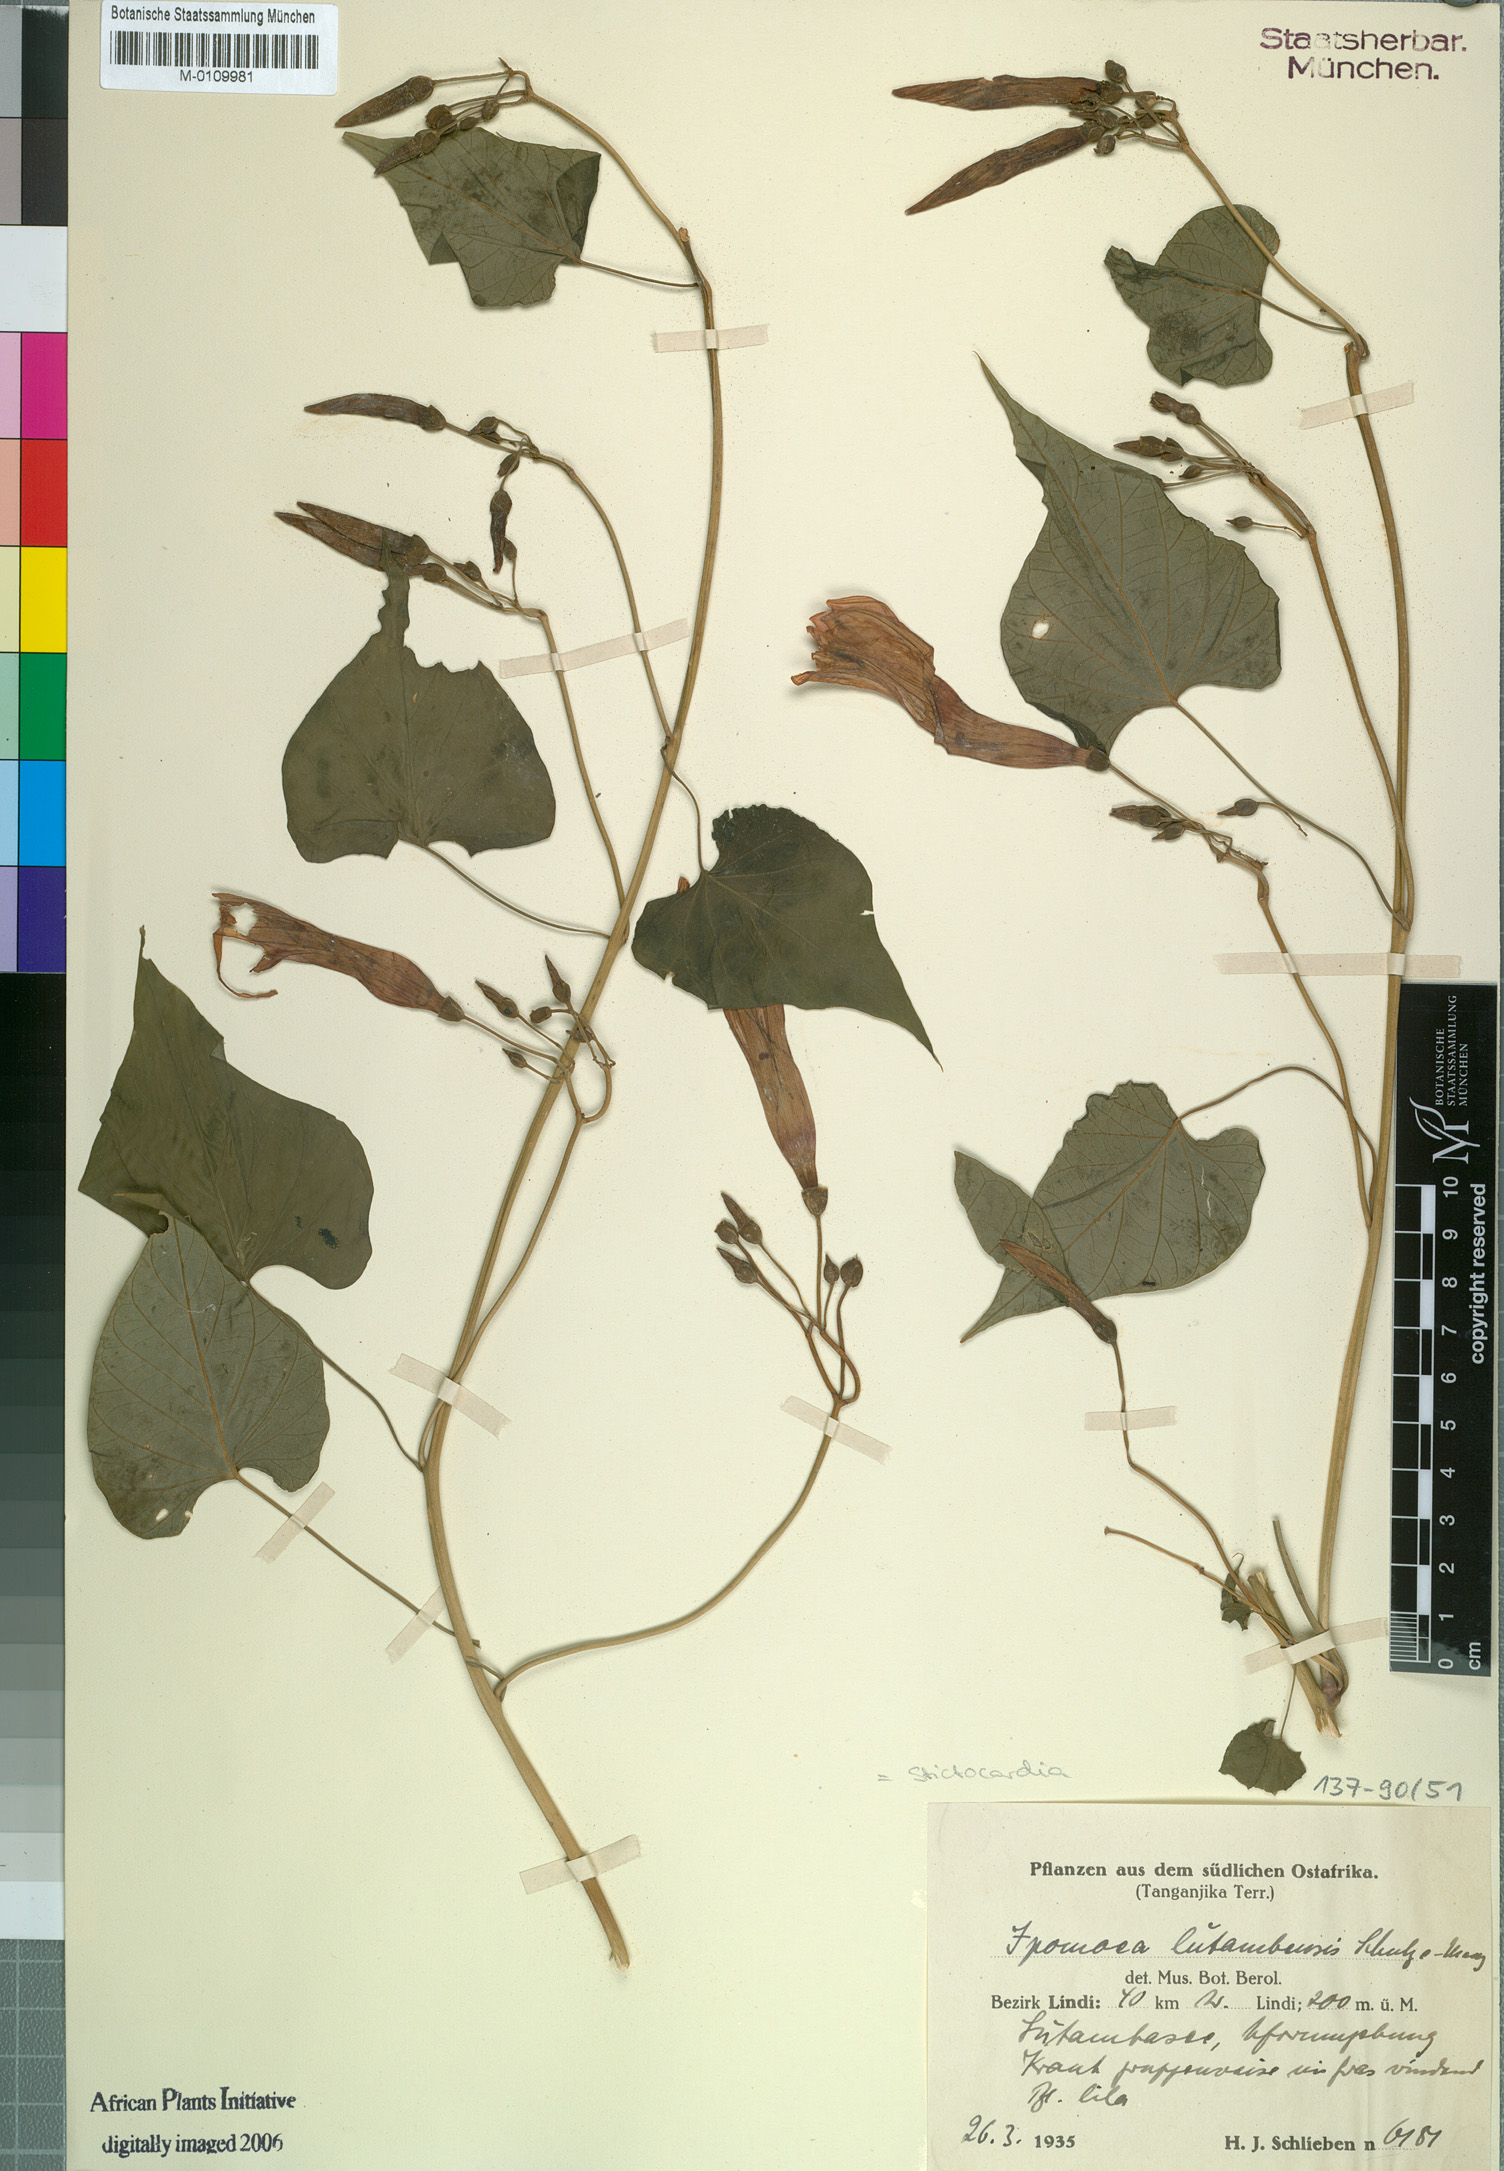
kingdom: Plantae
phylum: Tracheophyta
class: Magnoliopsida
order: Solanales
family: Convolvulaceae
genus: Stictocardia
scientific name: Stictocardia lutambensis
